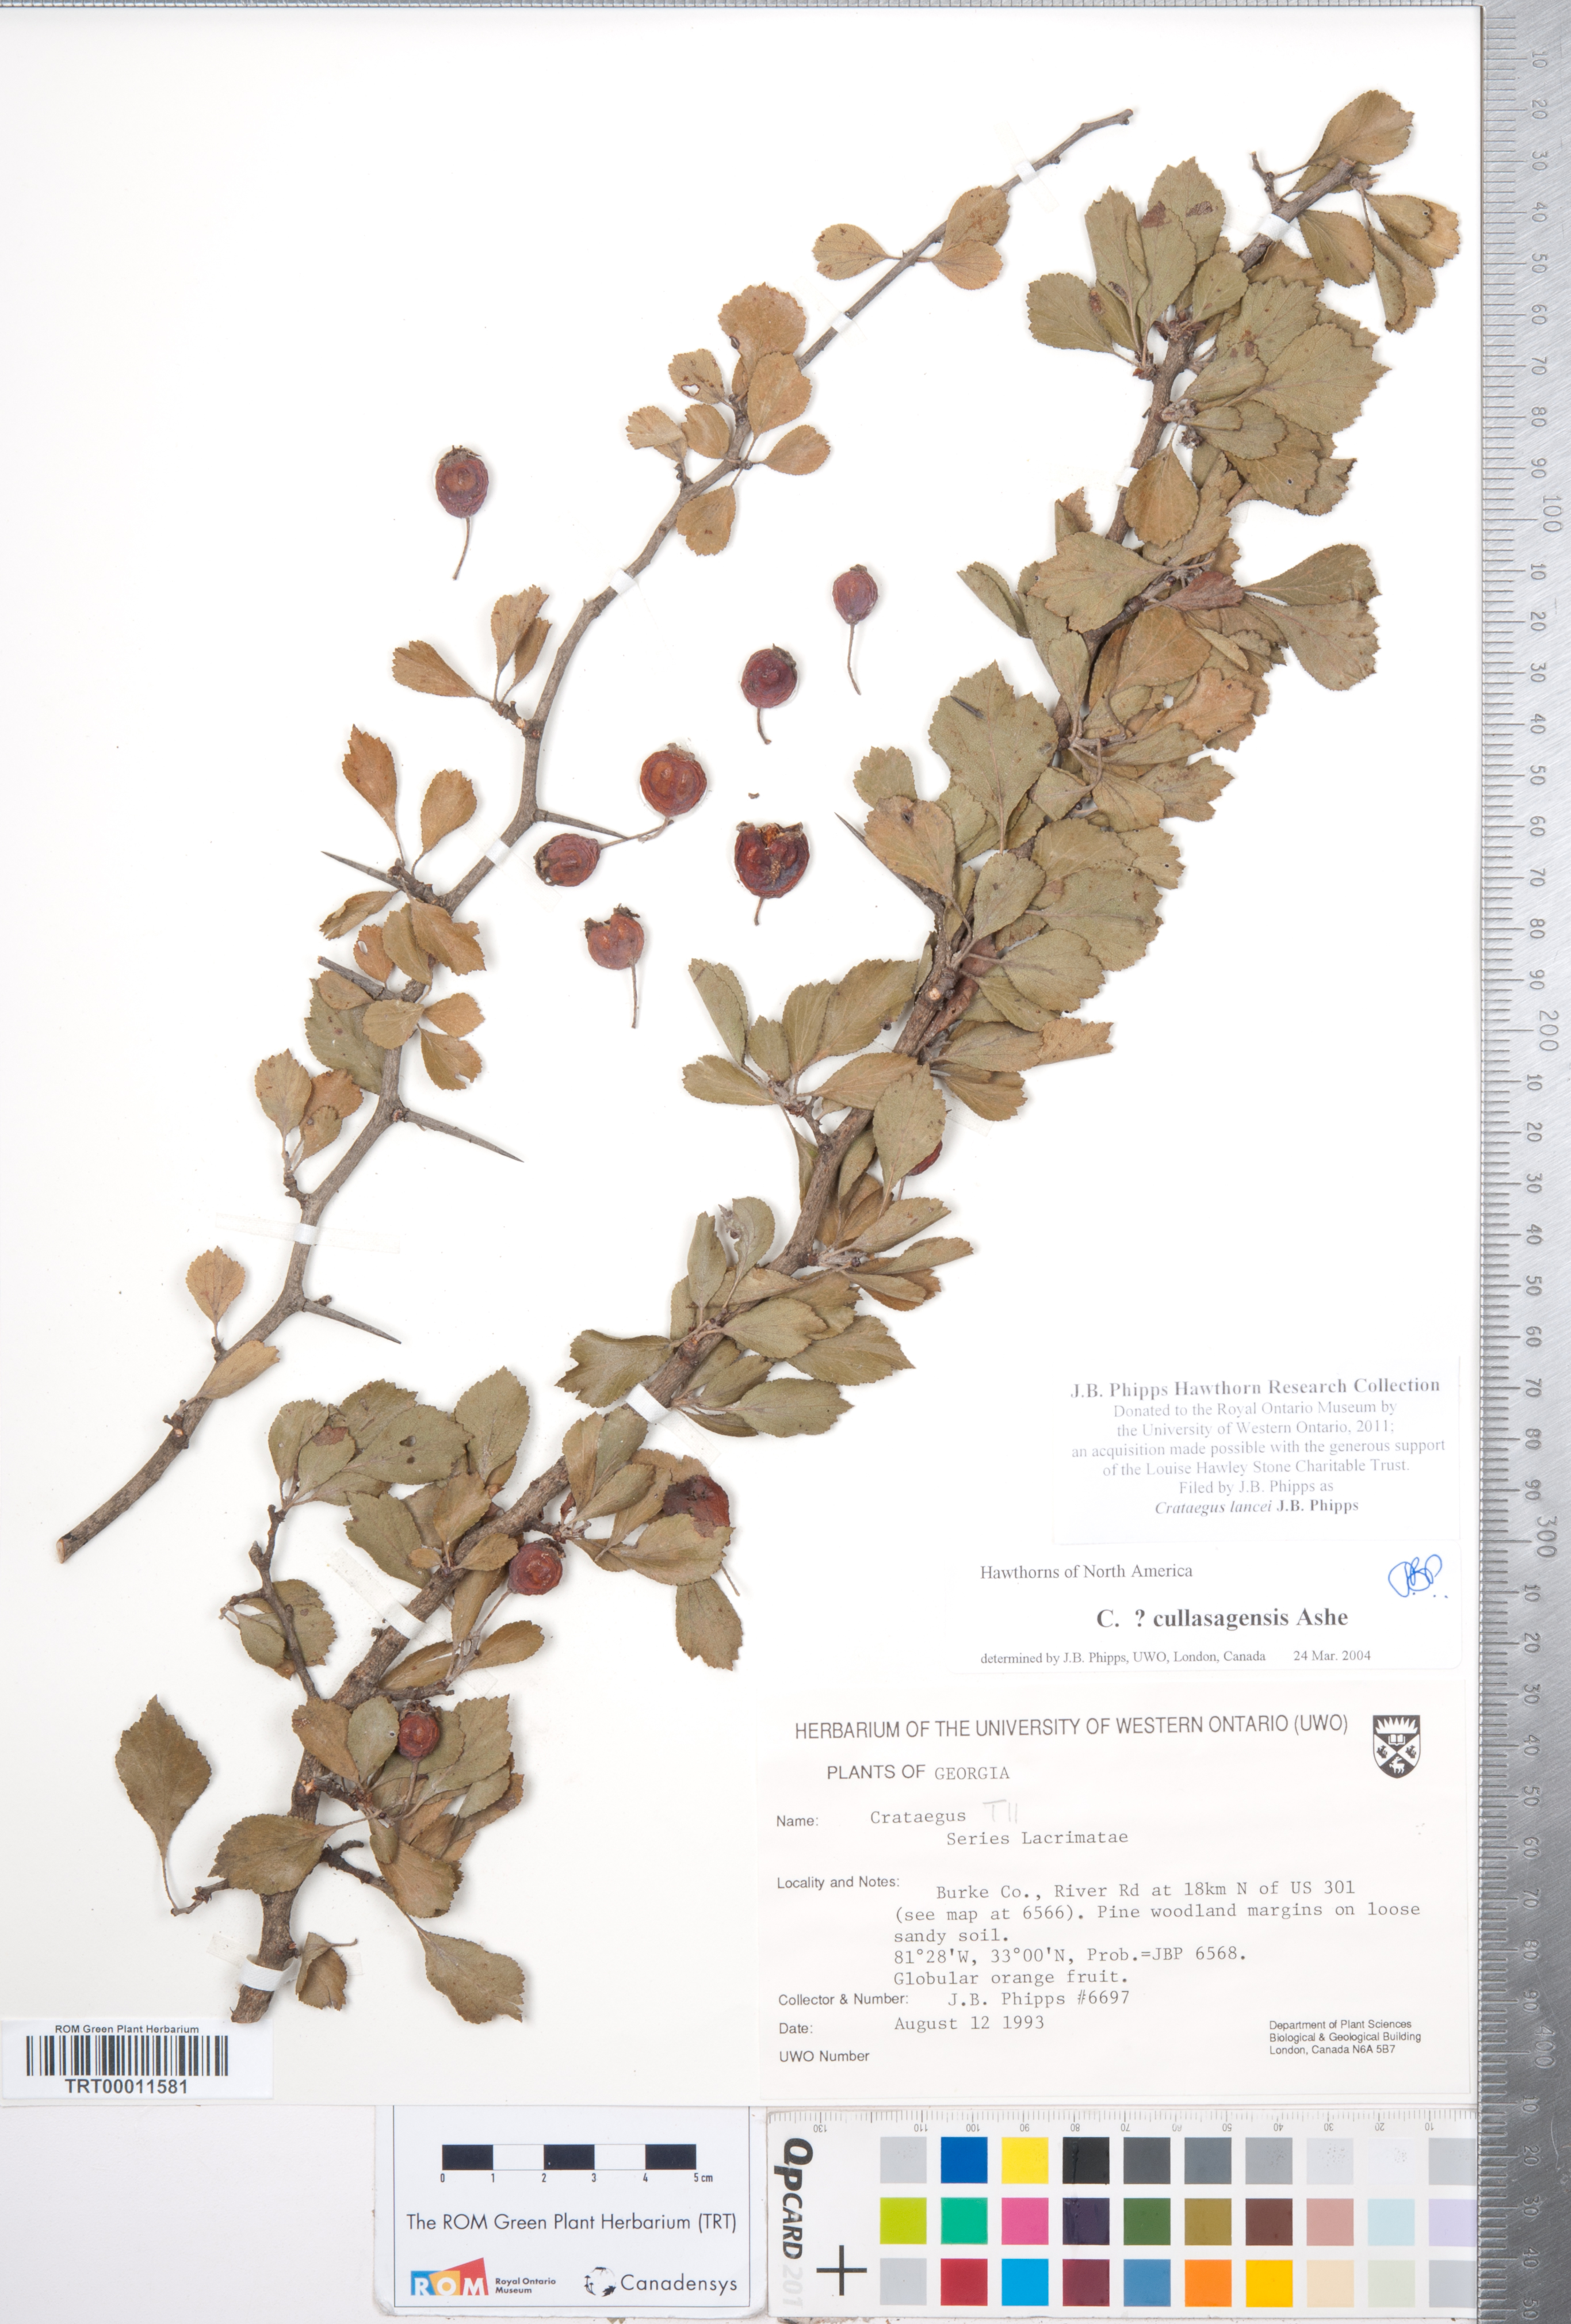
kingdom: Plantae
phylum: Tracheophyta
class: Magnoliopsida
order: Rosales
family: Rosaceae
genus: Crataegus
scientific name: Crataegus senta
